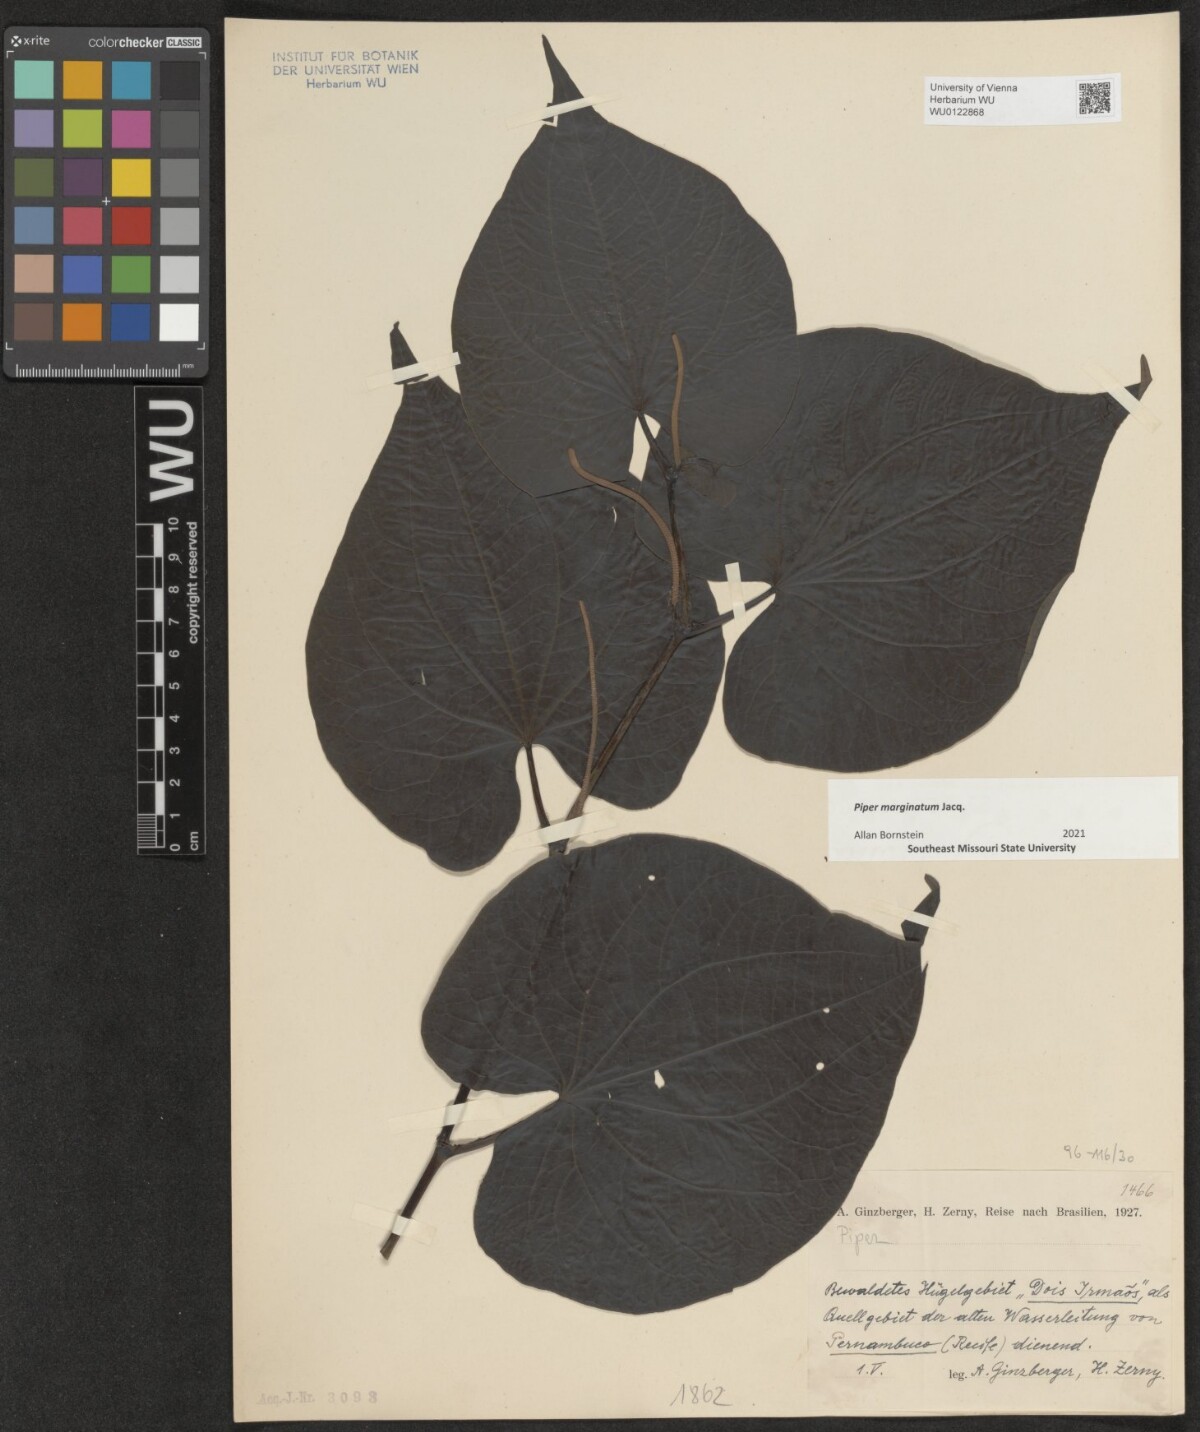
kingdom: Plantae
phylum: Tracheophyta
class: Magnoliopsida
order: Piperales
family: Piperaceae
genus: Piper
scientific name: Piper marginatum
